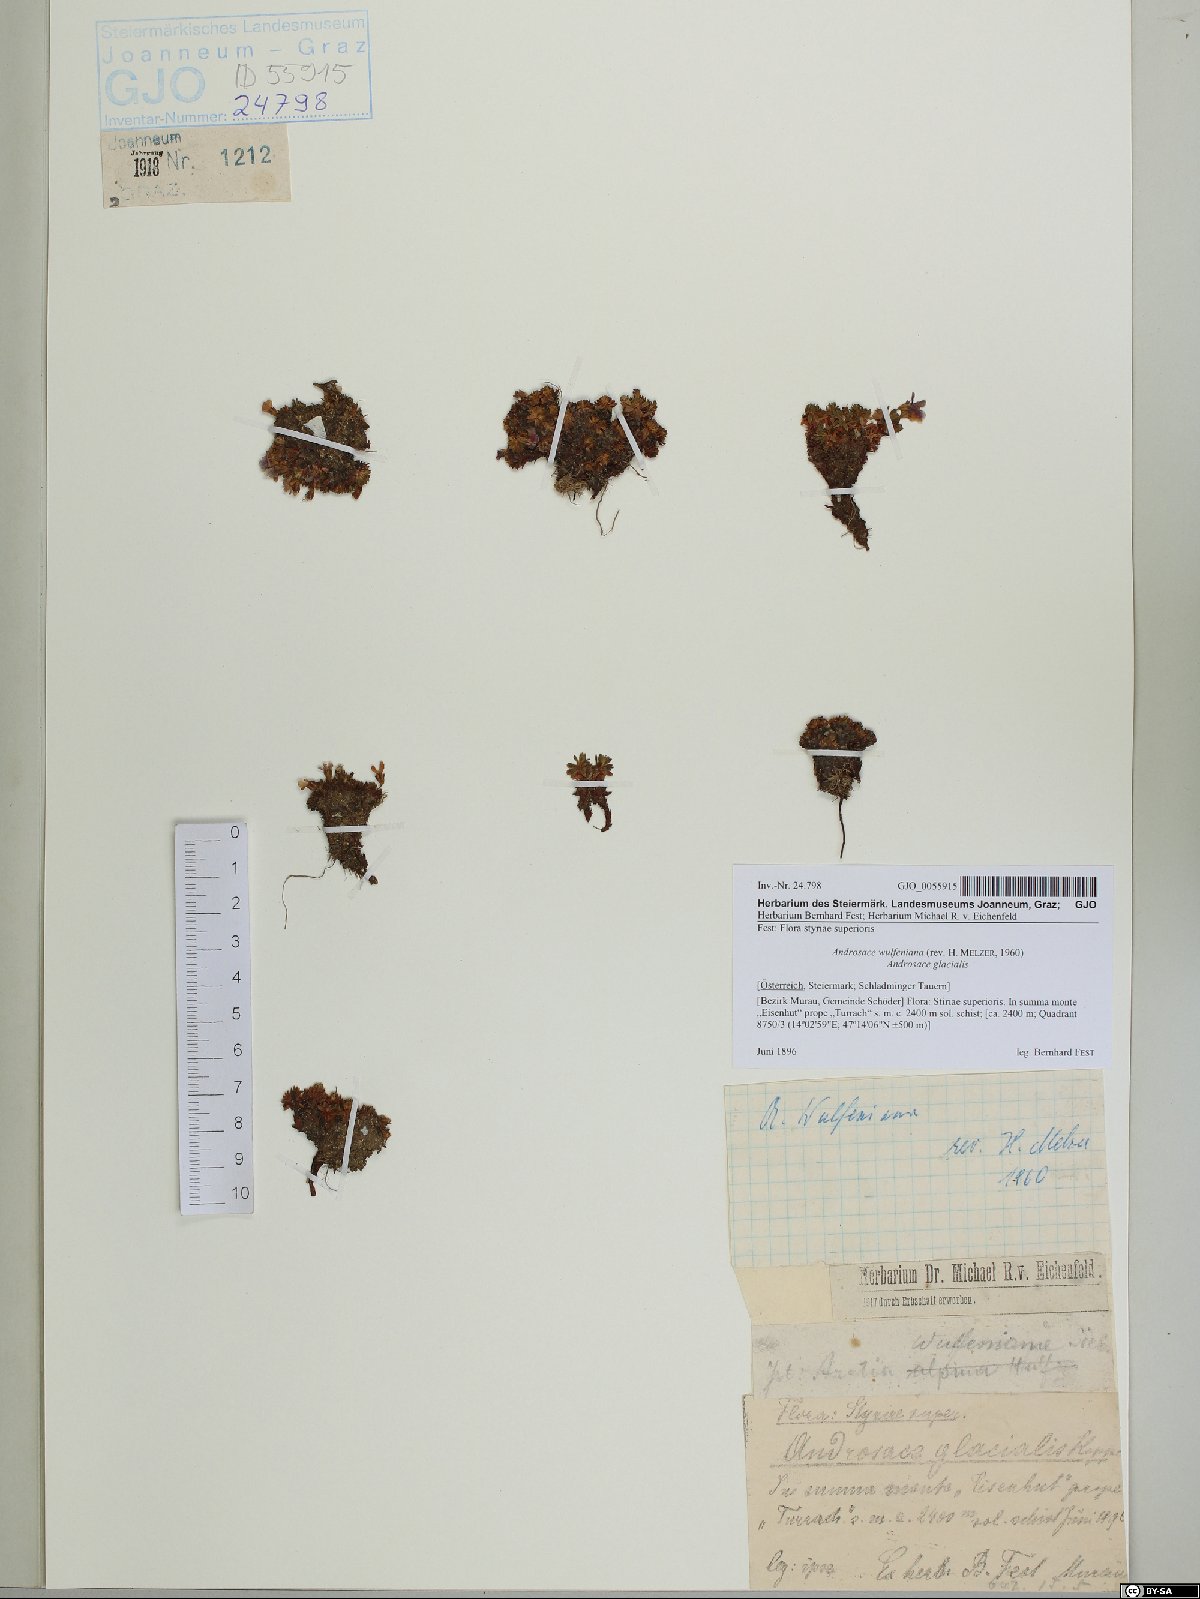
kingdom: Plantae
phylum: Tracheophyta
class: Magnoliopsida
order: Ericales
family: Primulaceae
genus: Androsace
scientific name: Androsace wulfeniana
